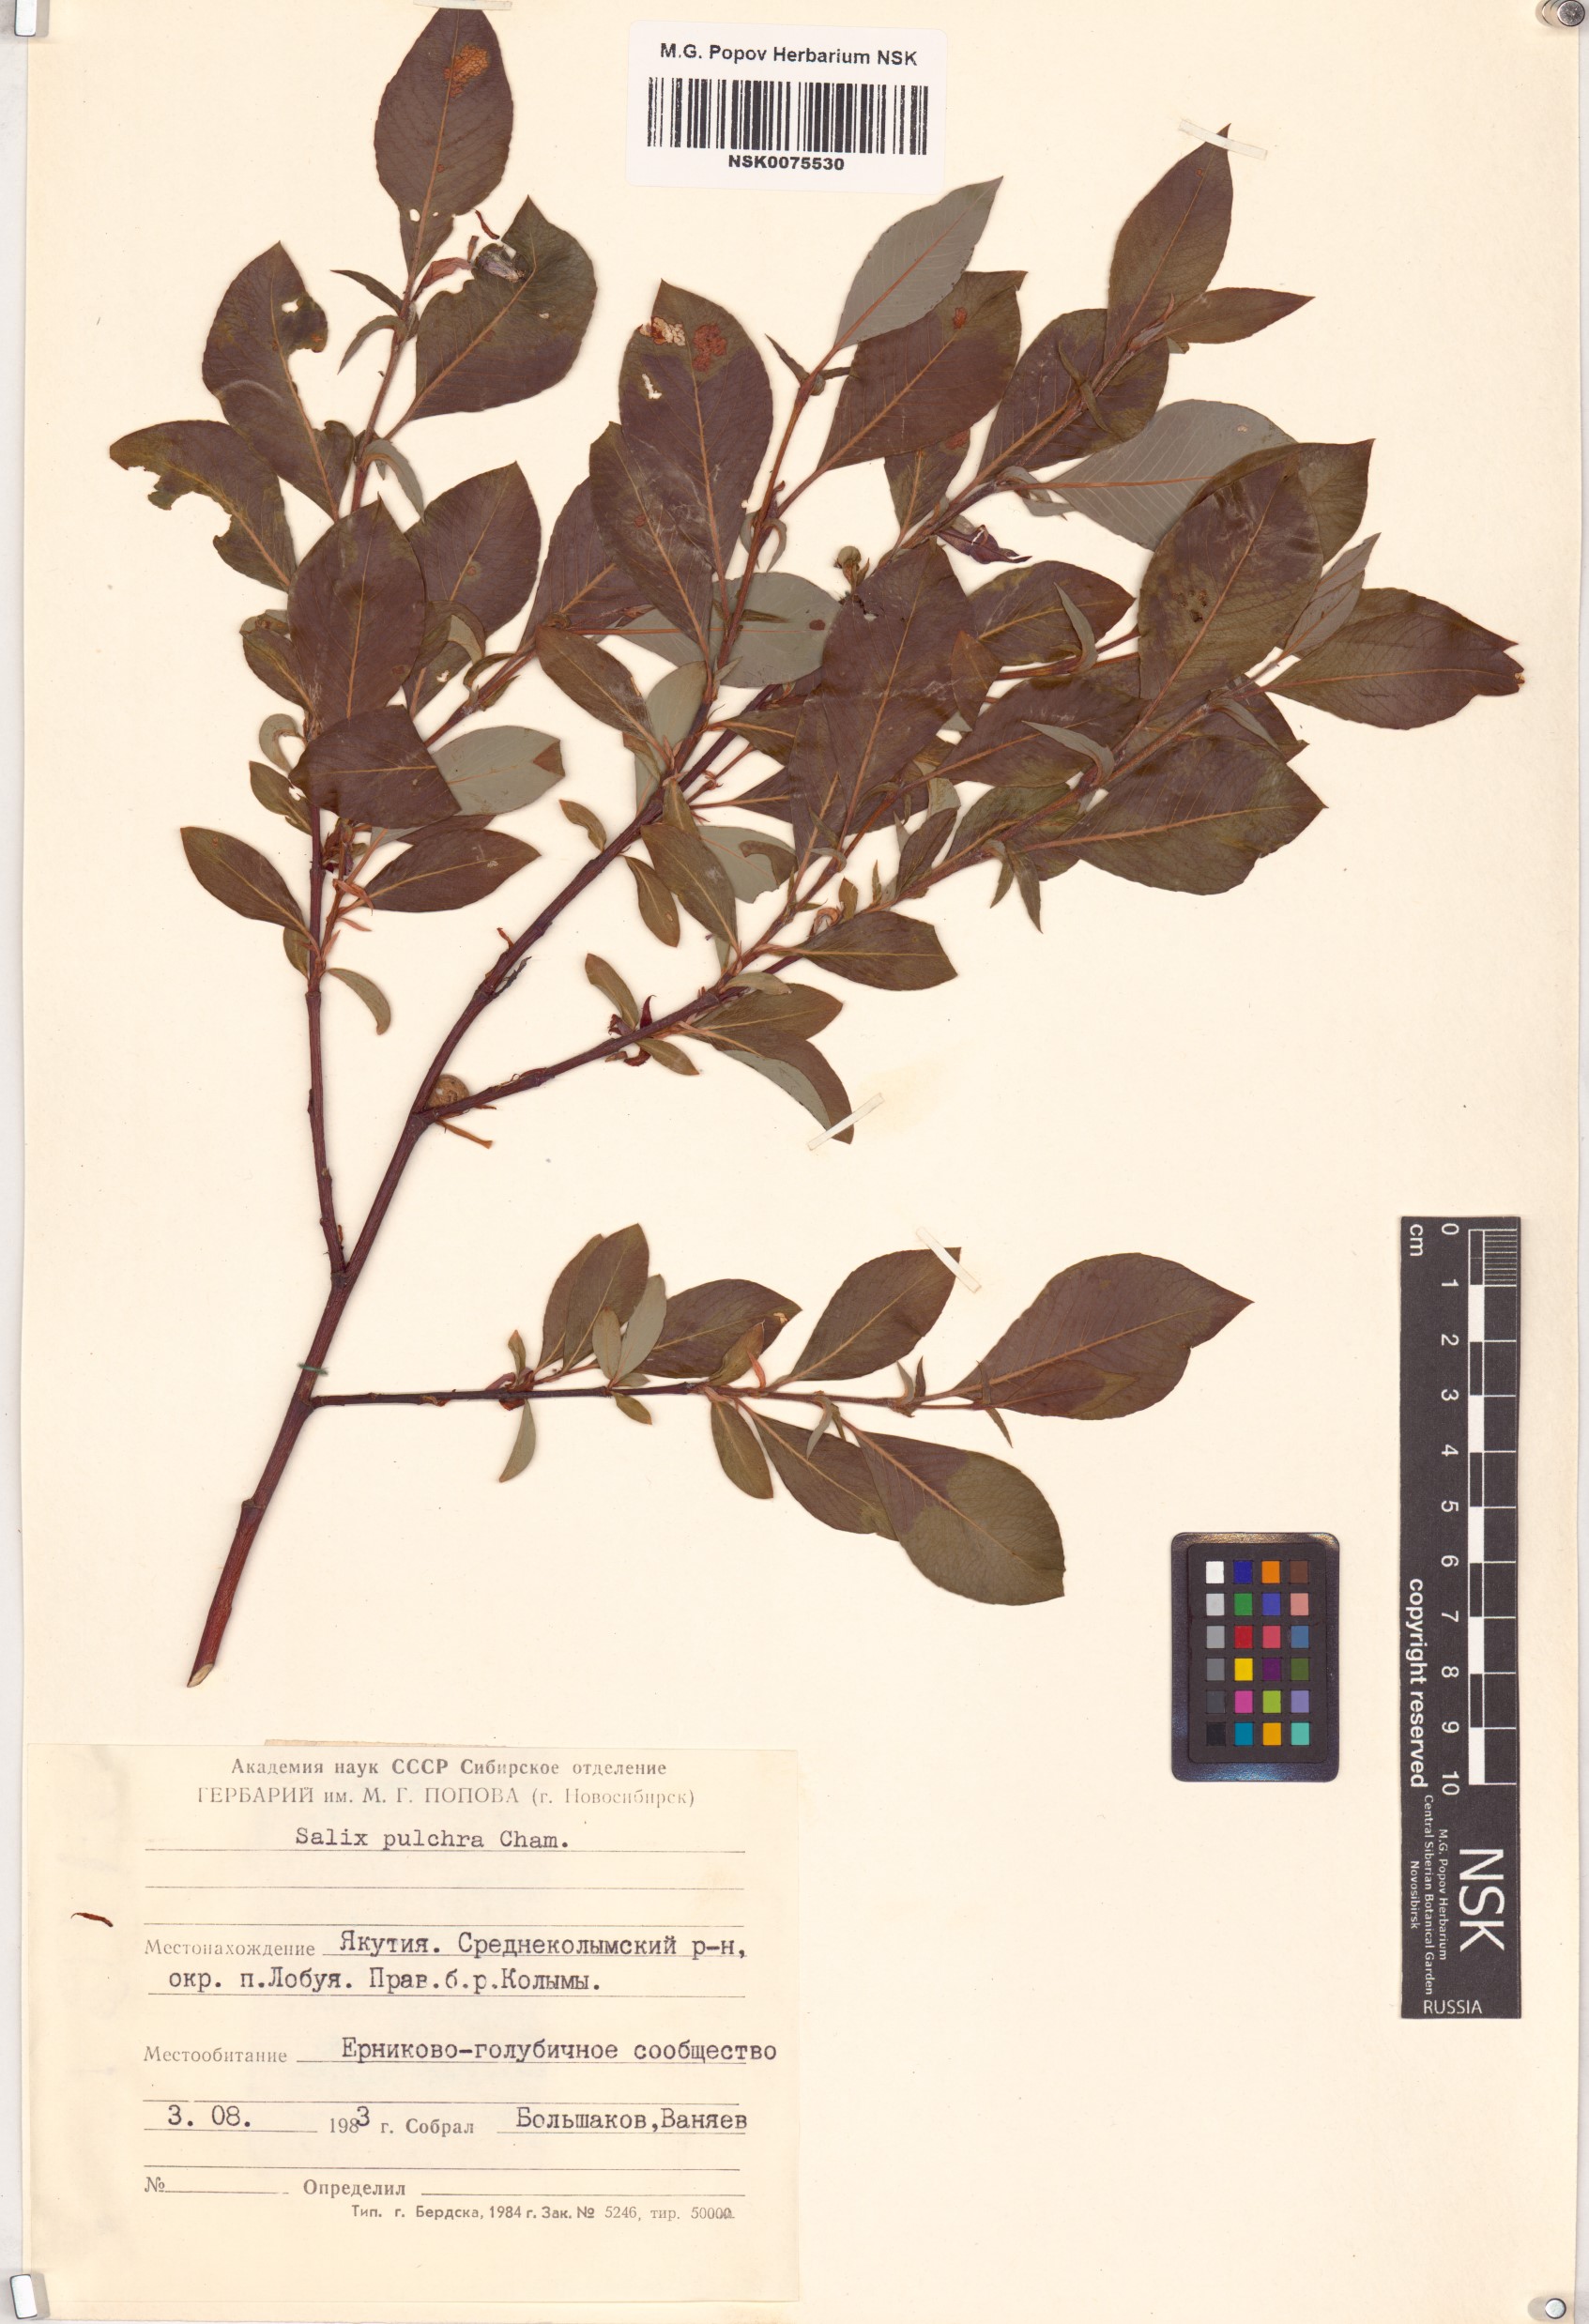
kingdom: Plantae
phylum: Tracheophyta
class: Magnoliopsida
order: Malpighiales
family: Salicaceae
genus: Salix
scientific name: Salix pulchra
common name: Diamond-leaved willow
